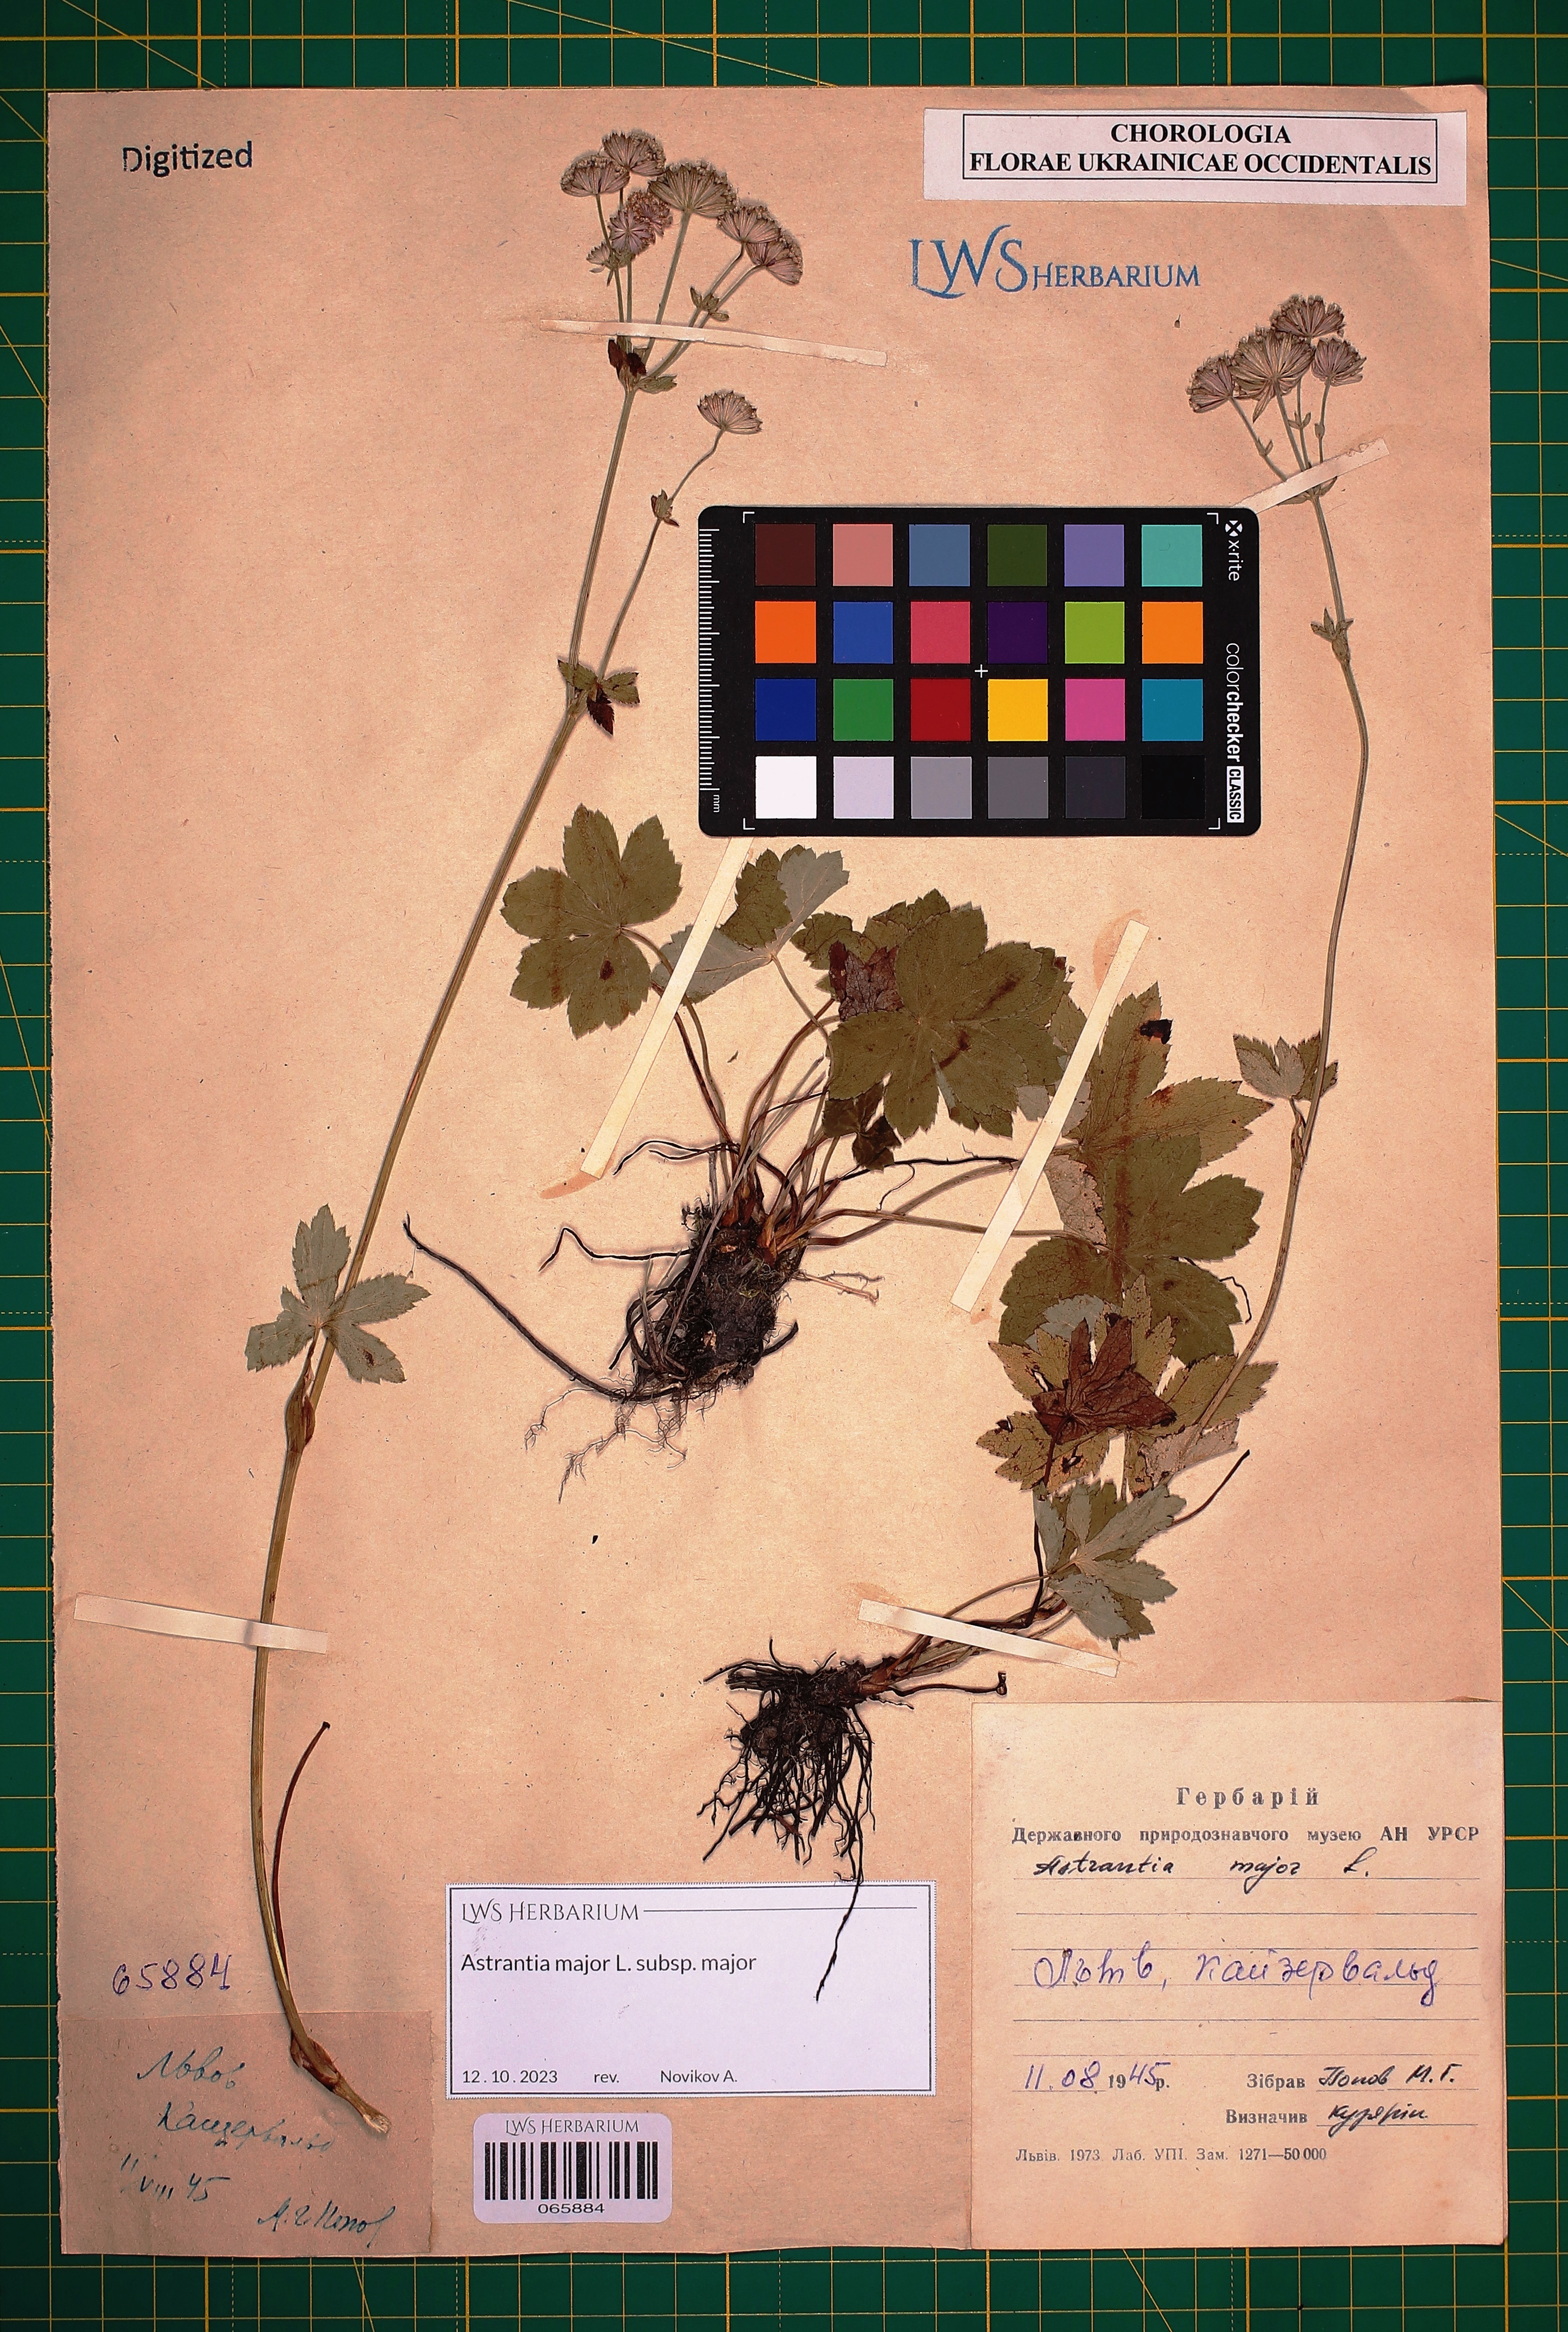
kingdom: Plantae
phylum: Tracheophyta
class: Magnoliopsida
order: Apiales
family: Apiaceae
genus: Astrantia
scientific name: Astrantia major
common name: Greater masterwort
